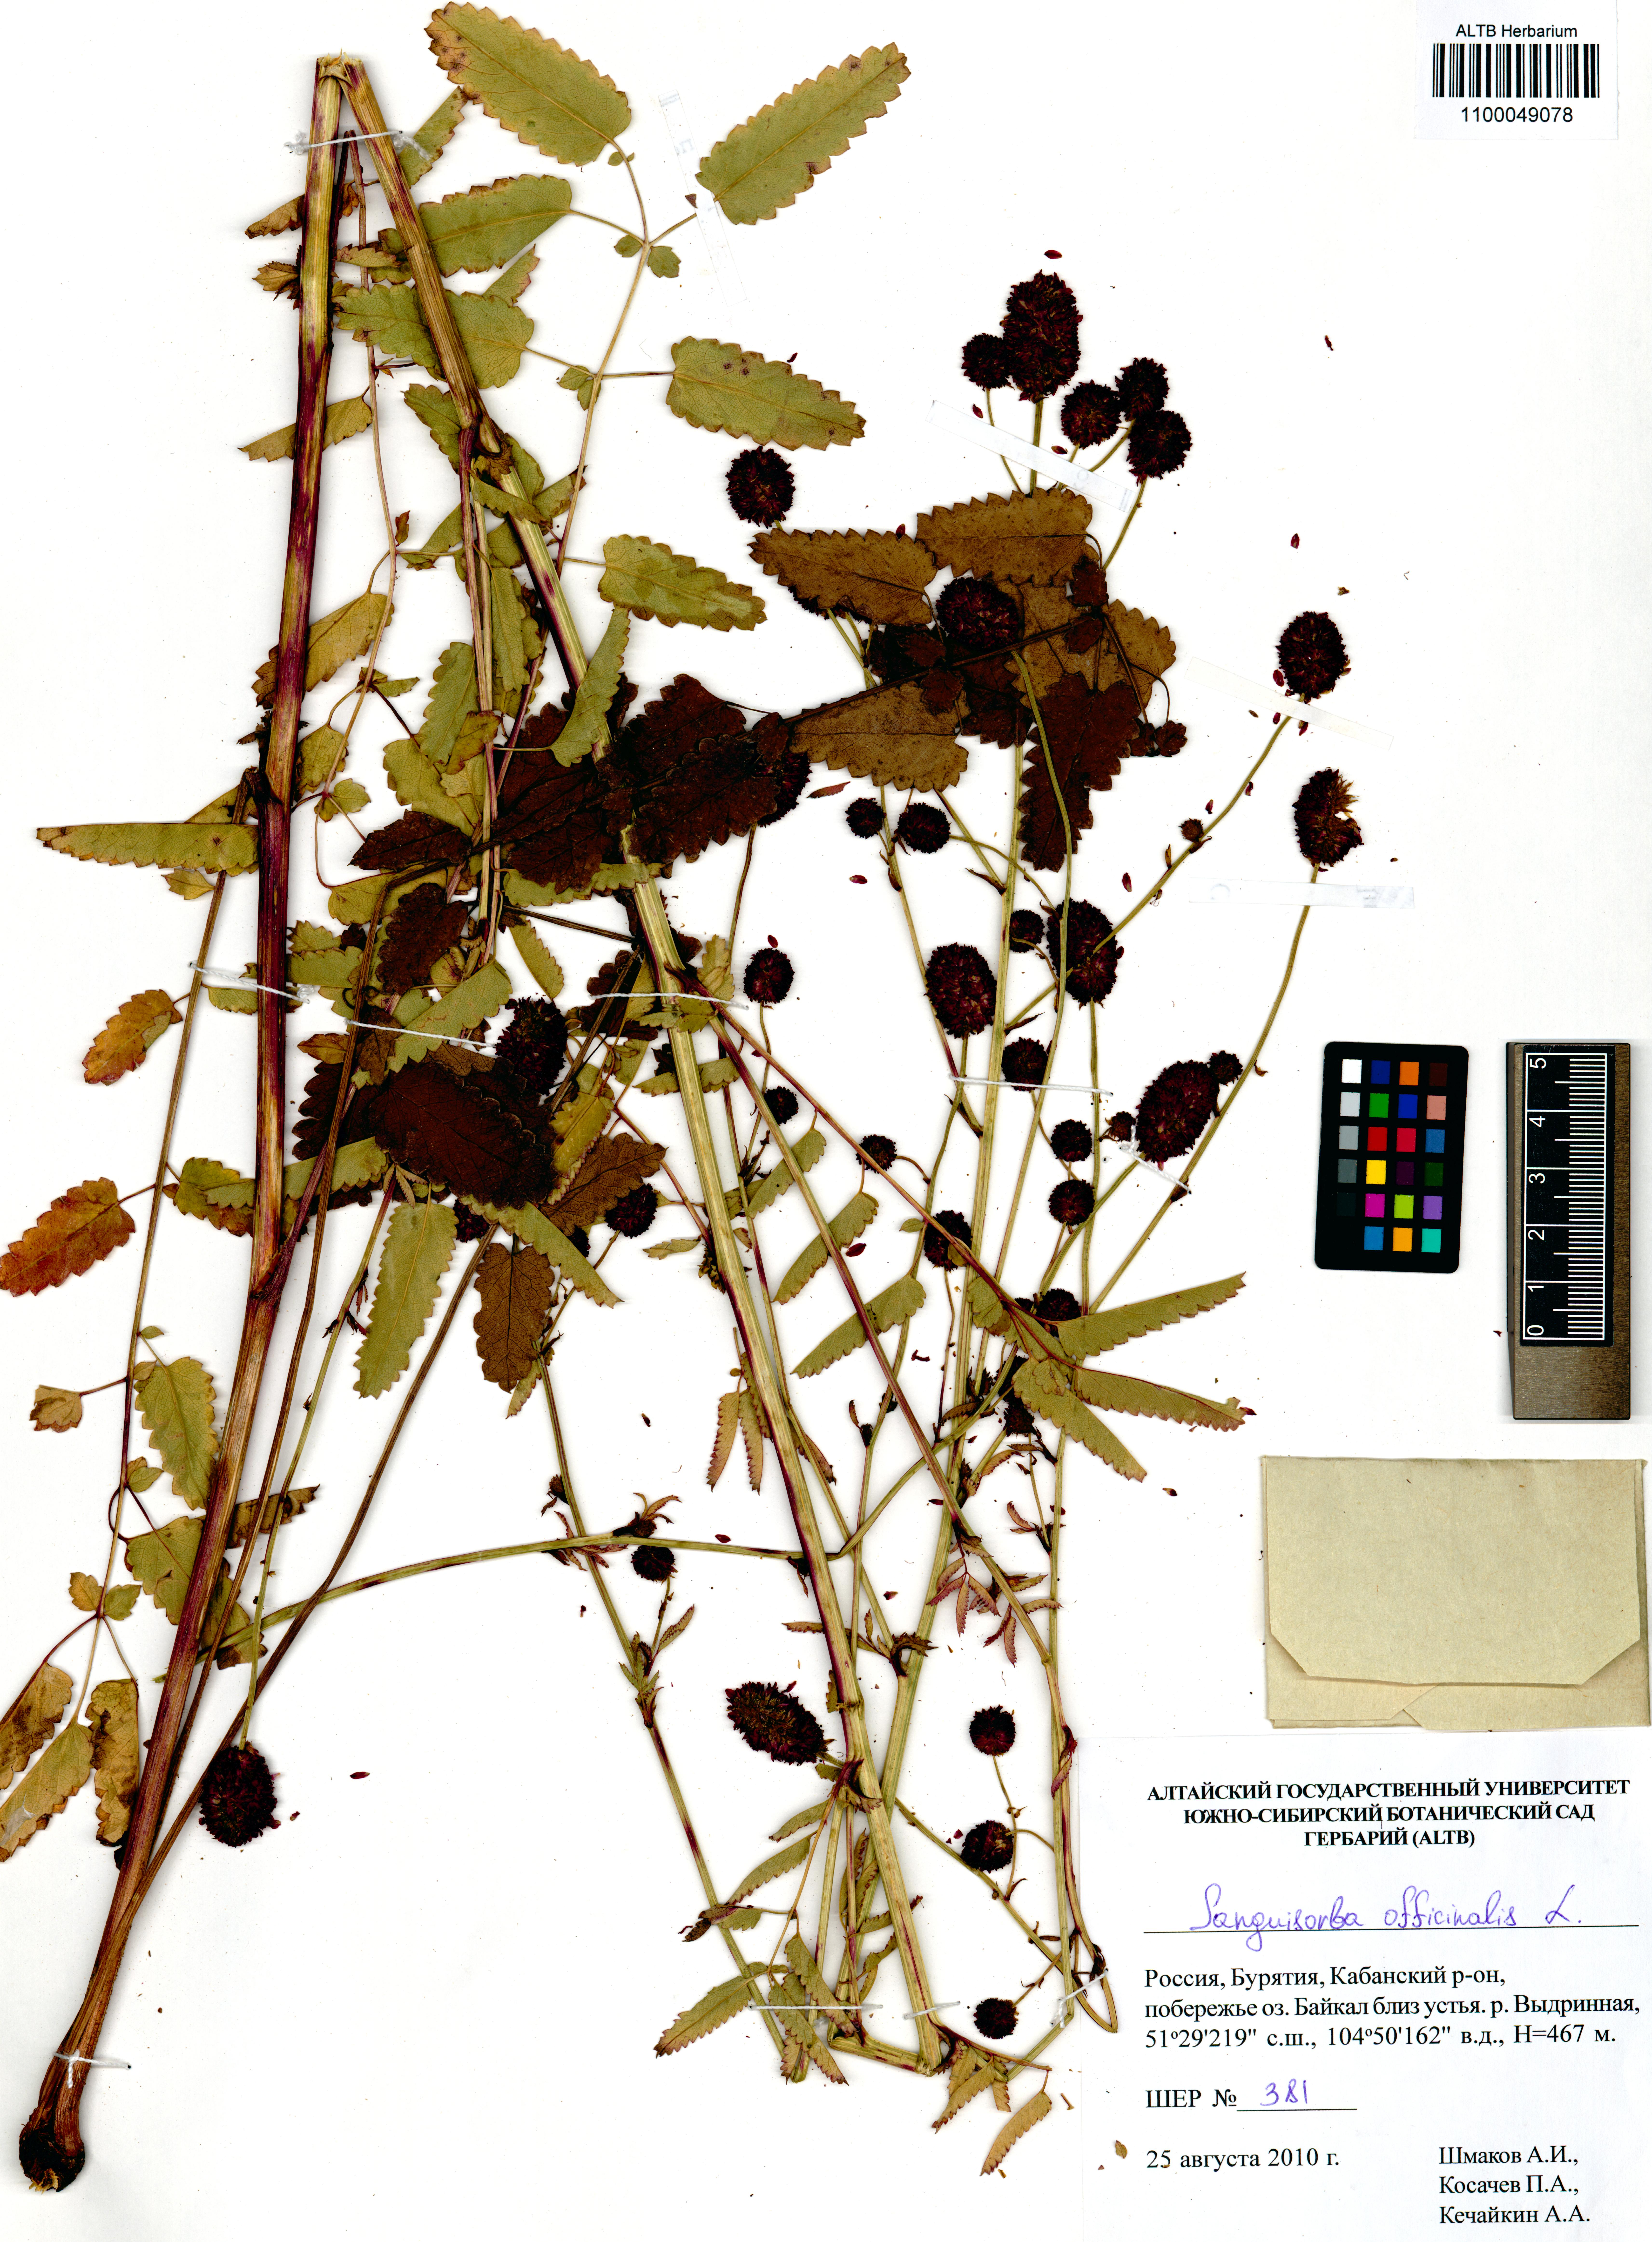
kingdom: Plantae
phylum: Tracheophyta
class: Magnoliopsida
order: Rosales
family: Rosaceae
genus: Sanguisorba
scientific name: Sanguisorba officinalis
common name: Great burnet
